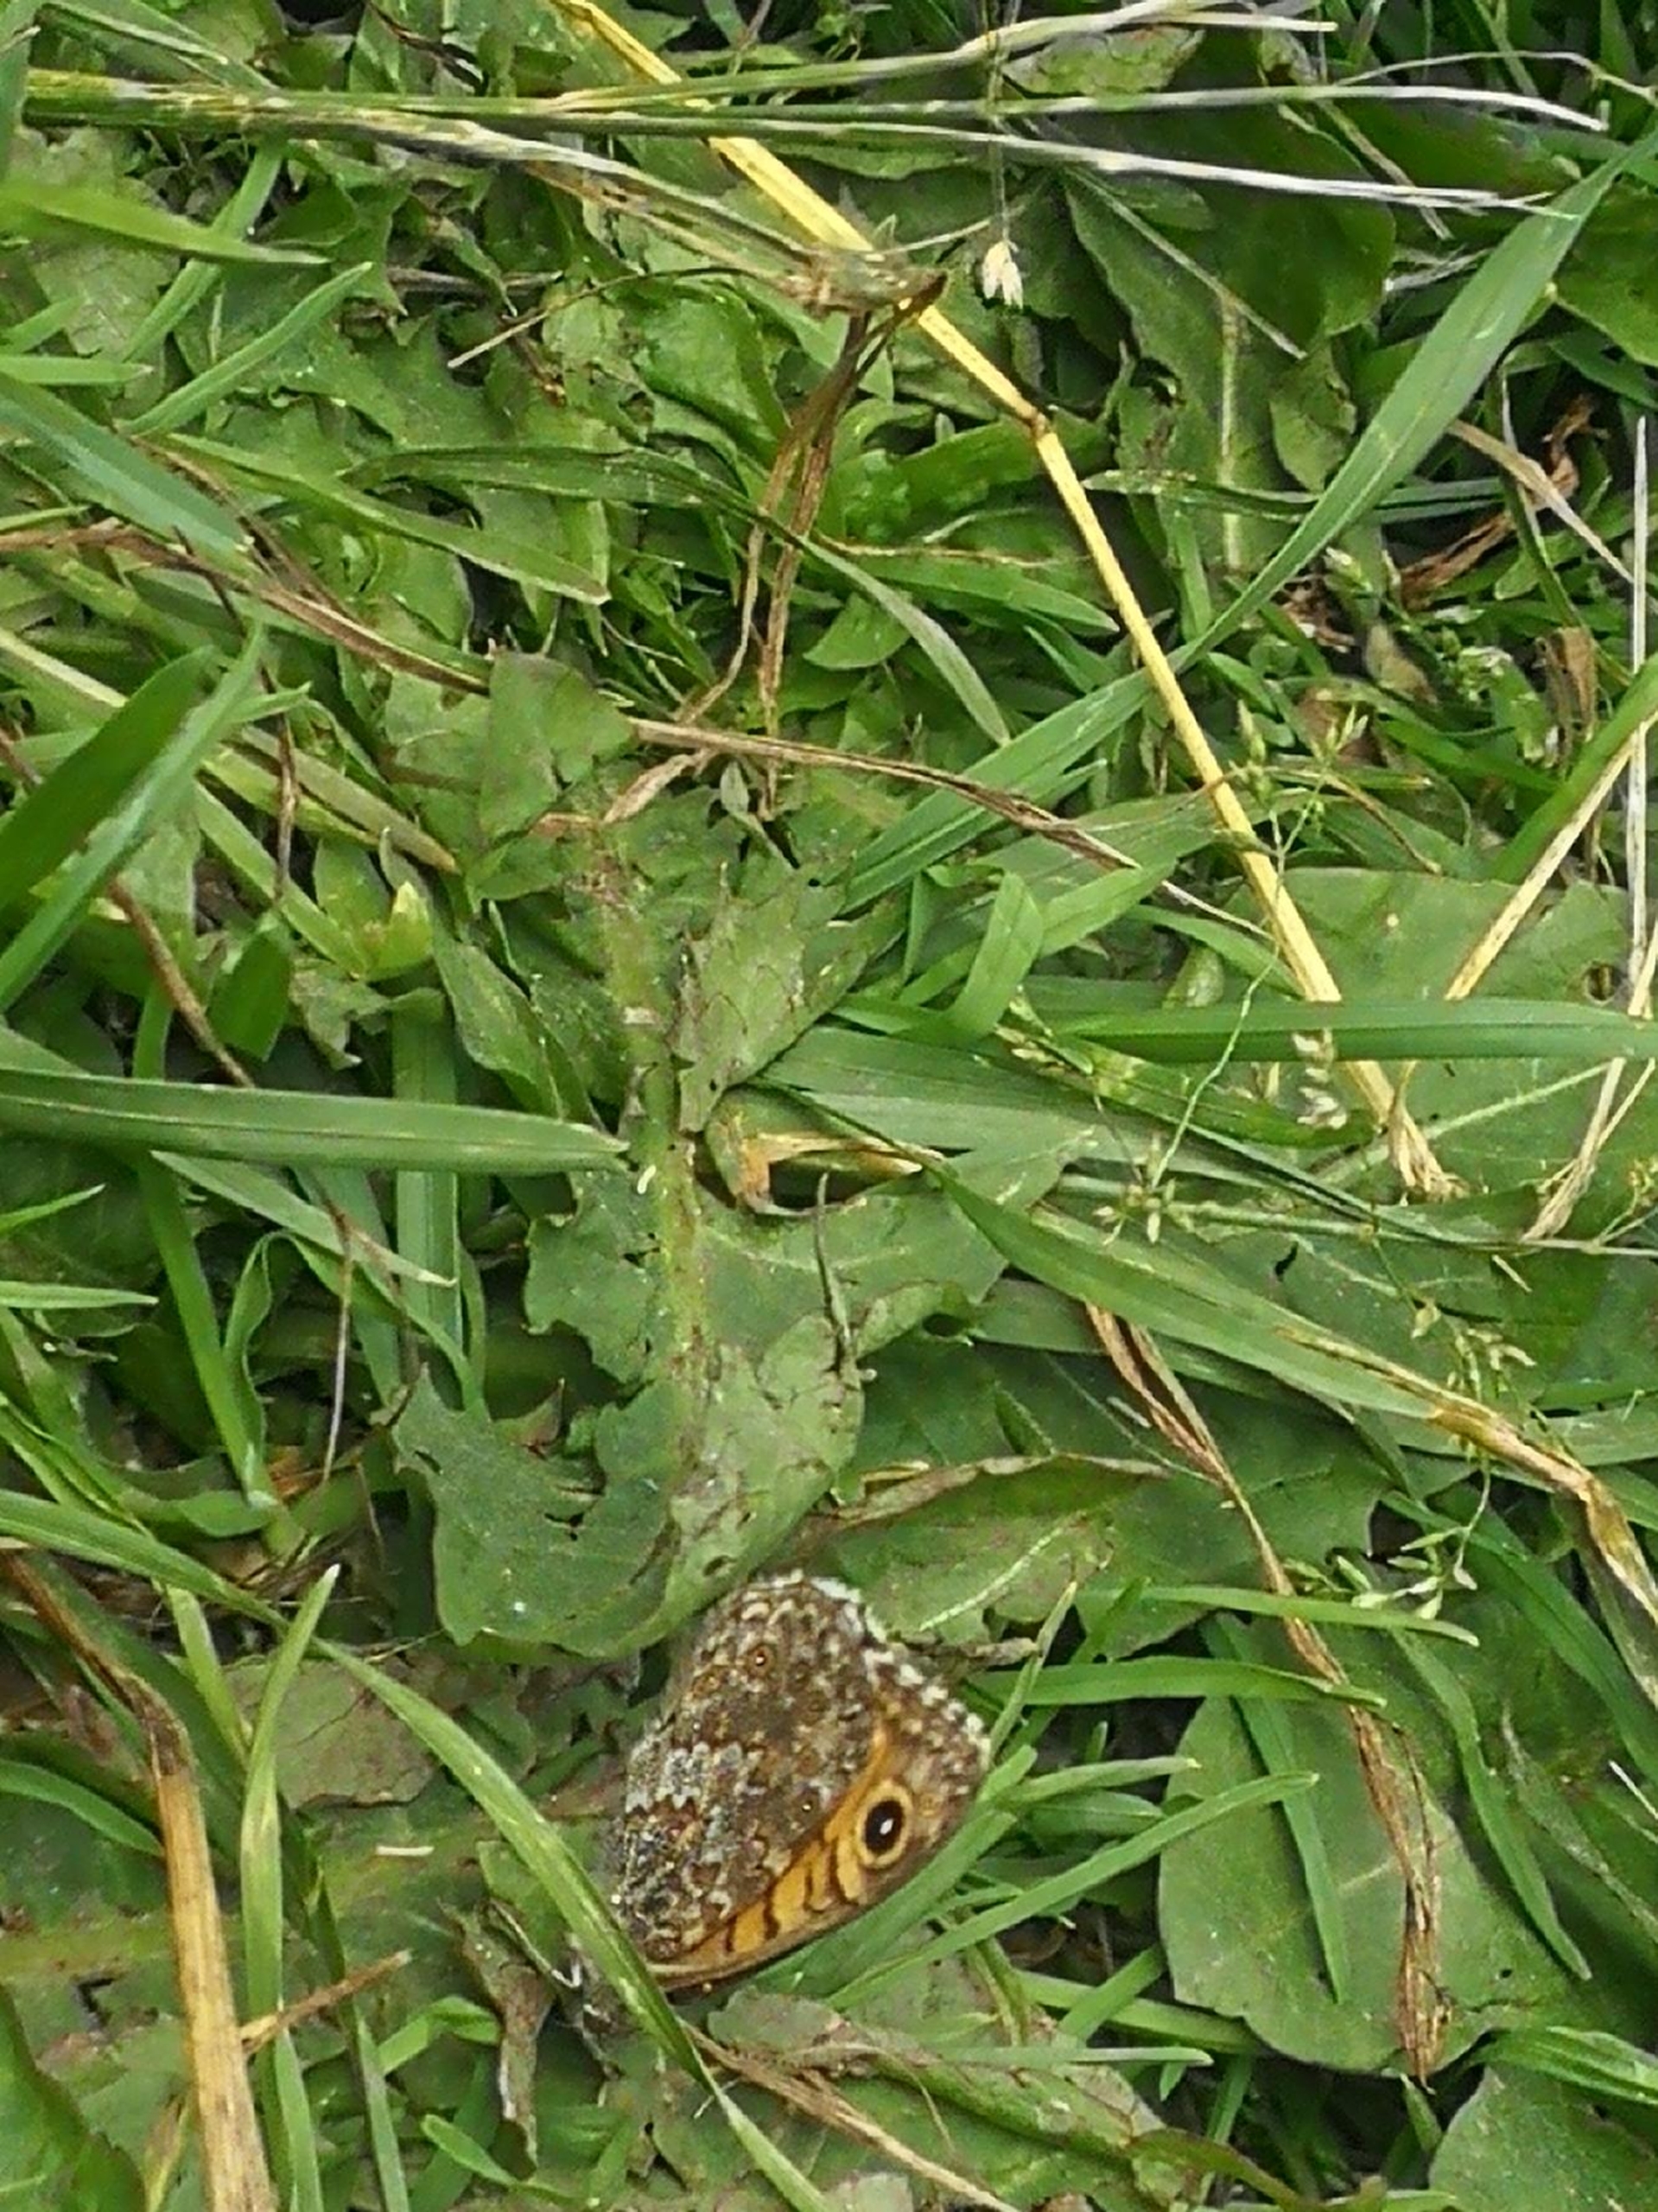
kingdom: Animalia
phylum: Arthropoda
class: Insecta
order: Lepidoptera
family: Nymphalidae
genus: Pararge
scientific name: Pararge Lasiommata megera
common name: Vejrandøje
